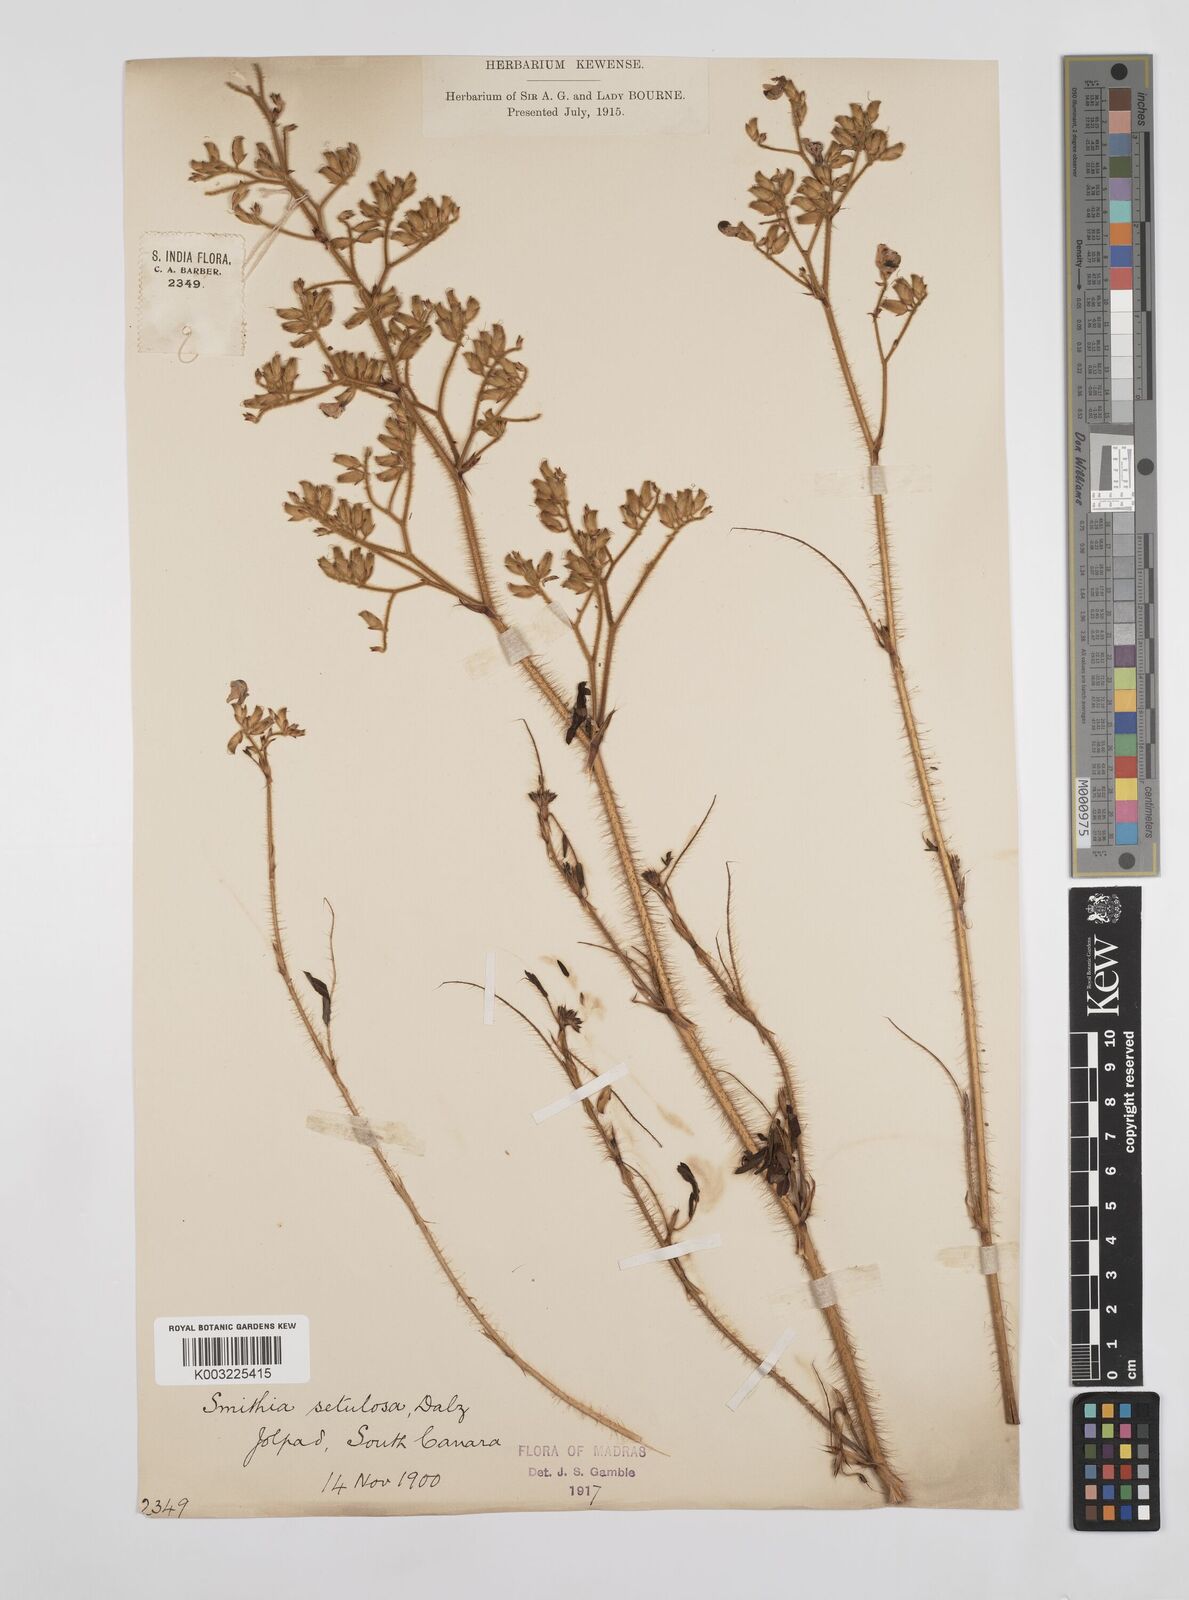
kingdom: Plantae
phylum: Tracheophyta
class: Magnoliopsida
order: Fabales
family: Fabaceae
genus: Smithia
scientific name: Smithia setulosa
